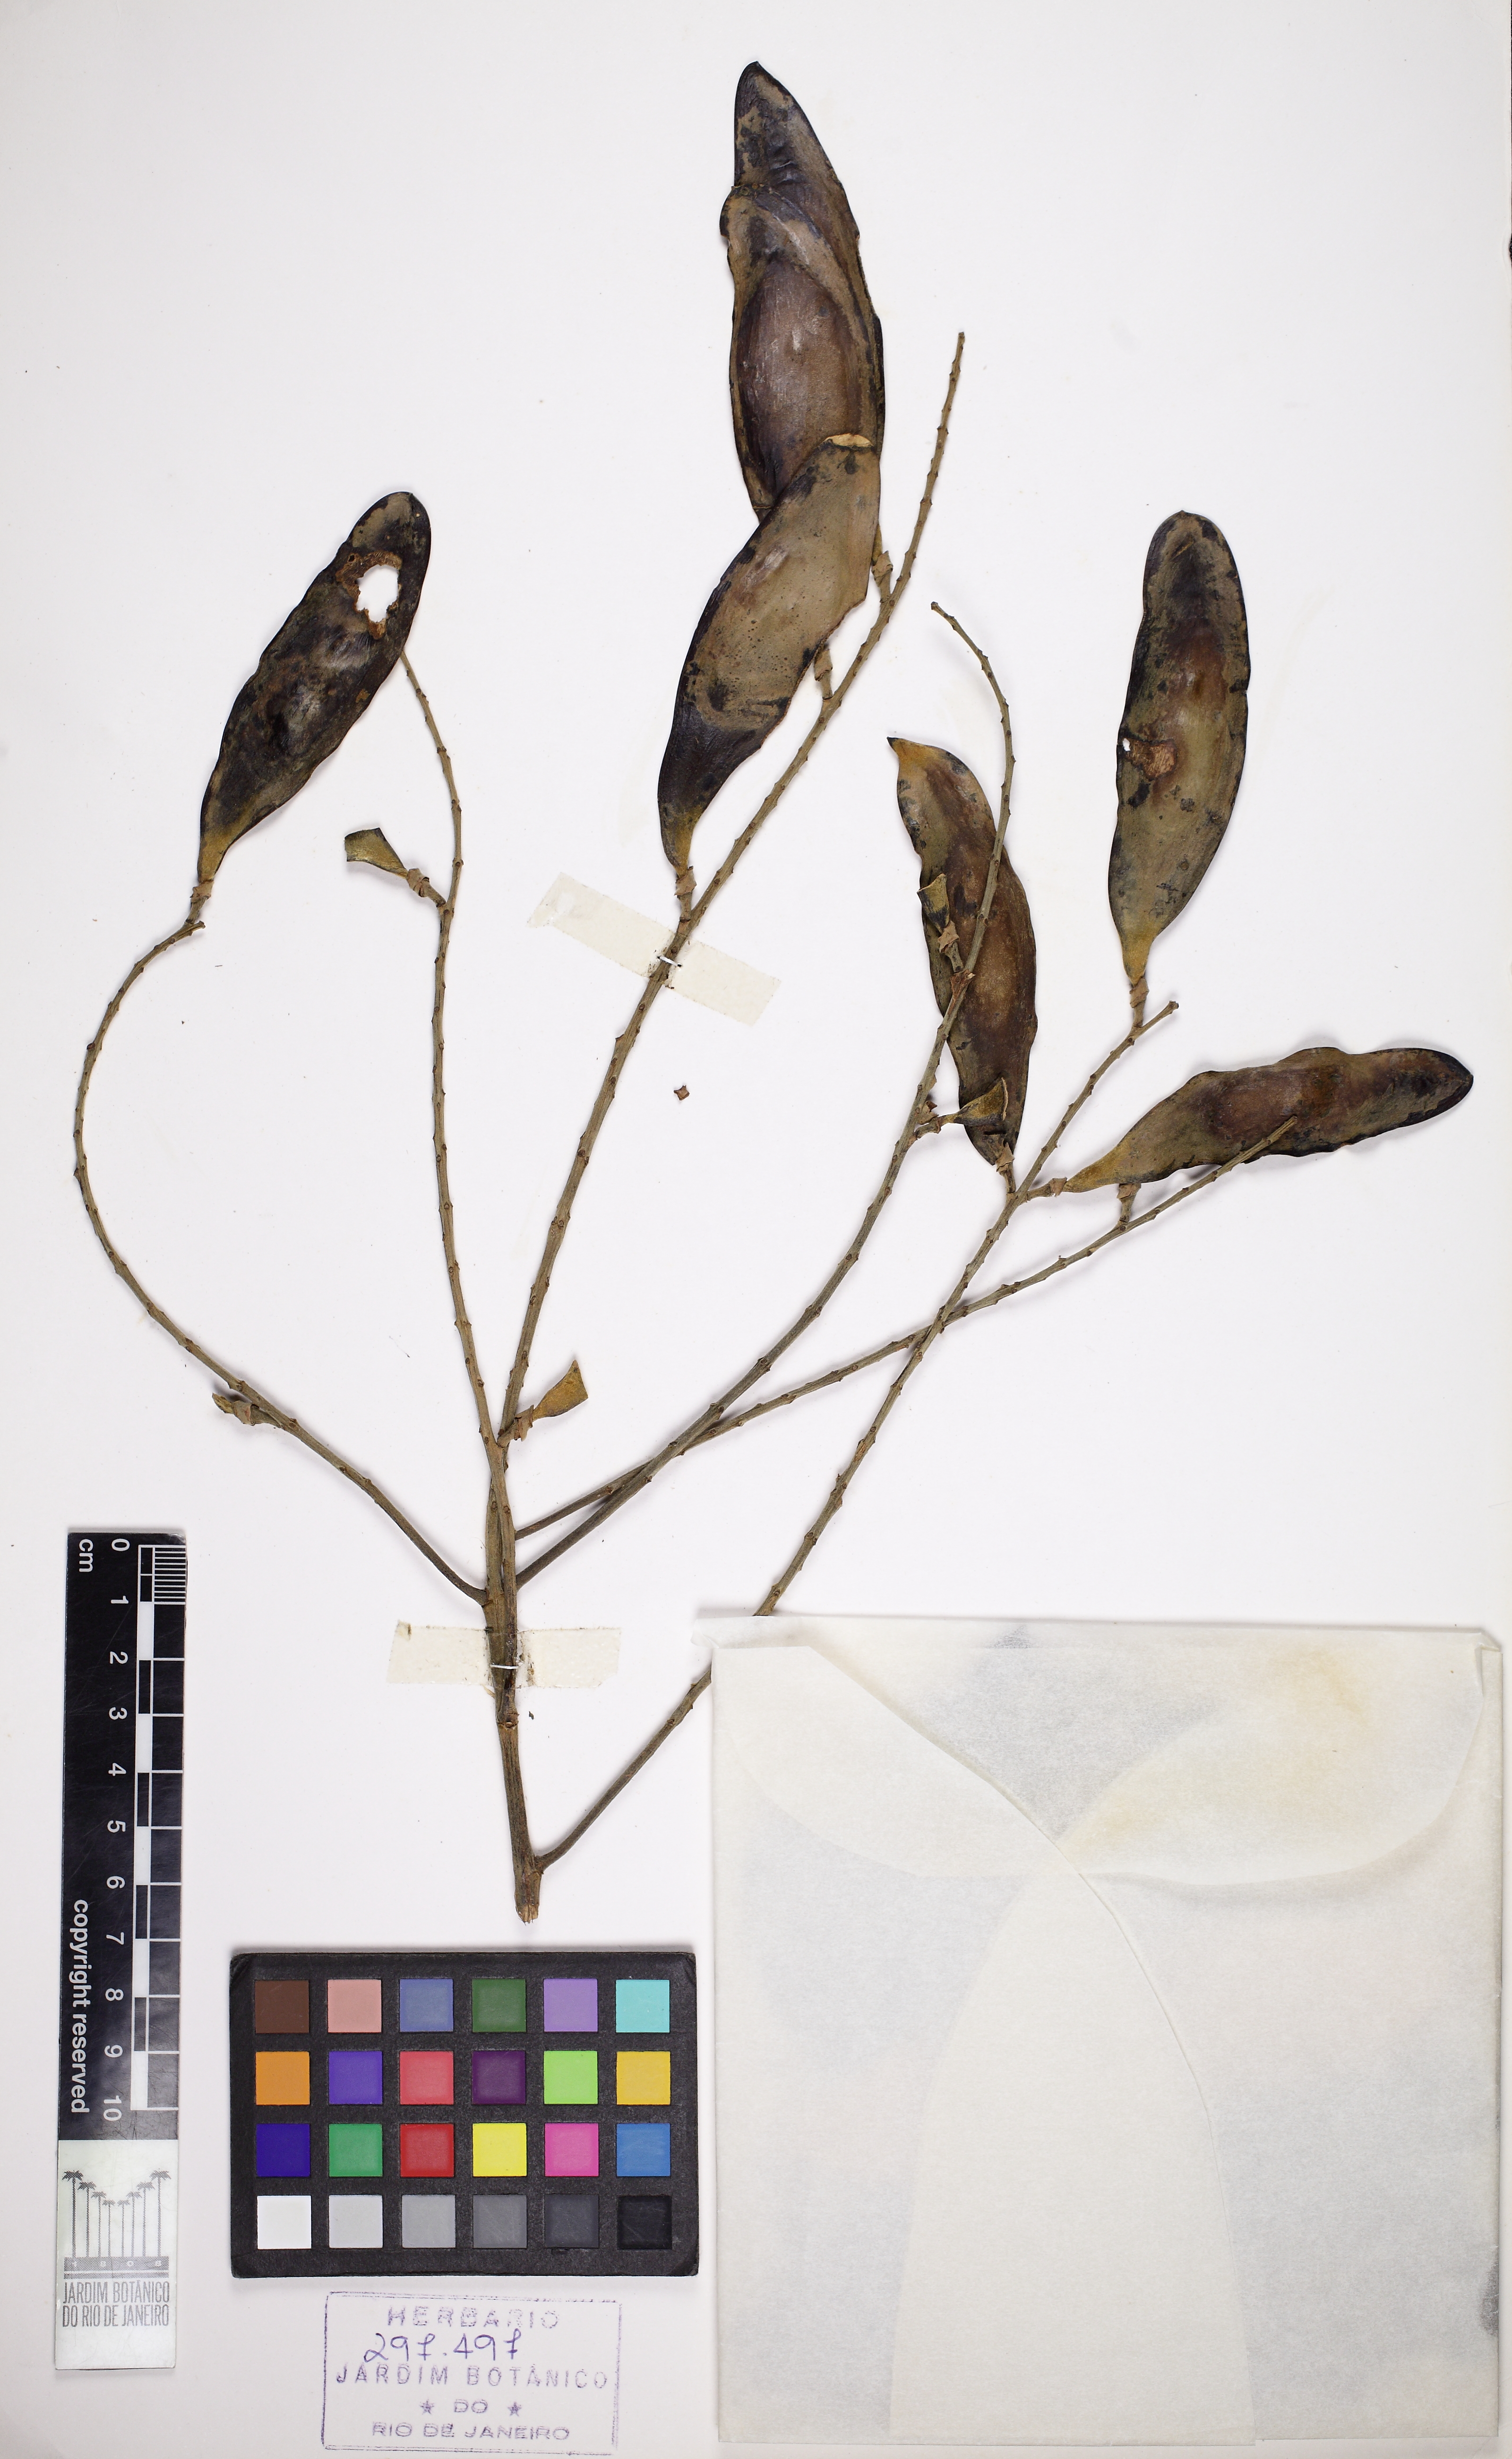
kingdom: Plantae
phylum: Tracheophyta
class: Magnoliopsida
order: Fabales
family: Fabaceae
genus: Tachigali
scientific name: Tachigali paratyensis
